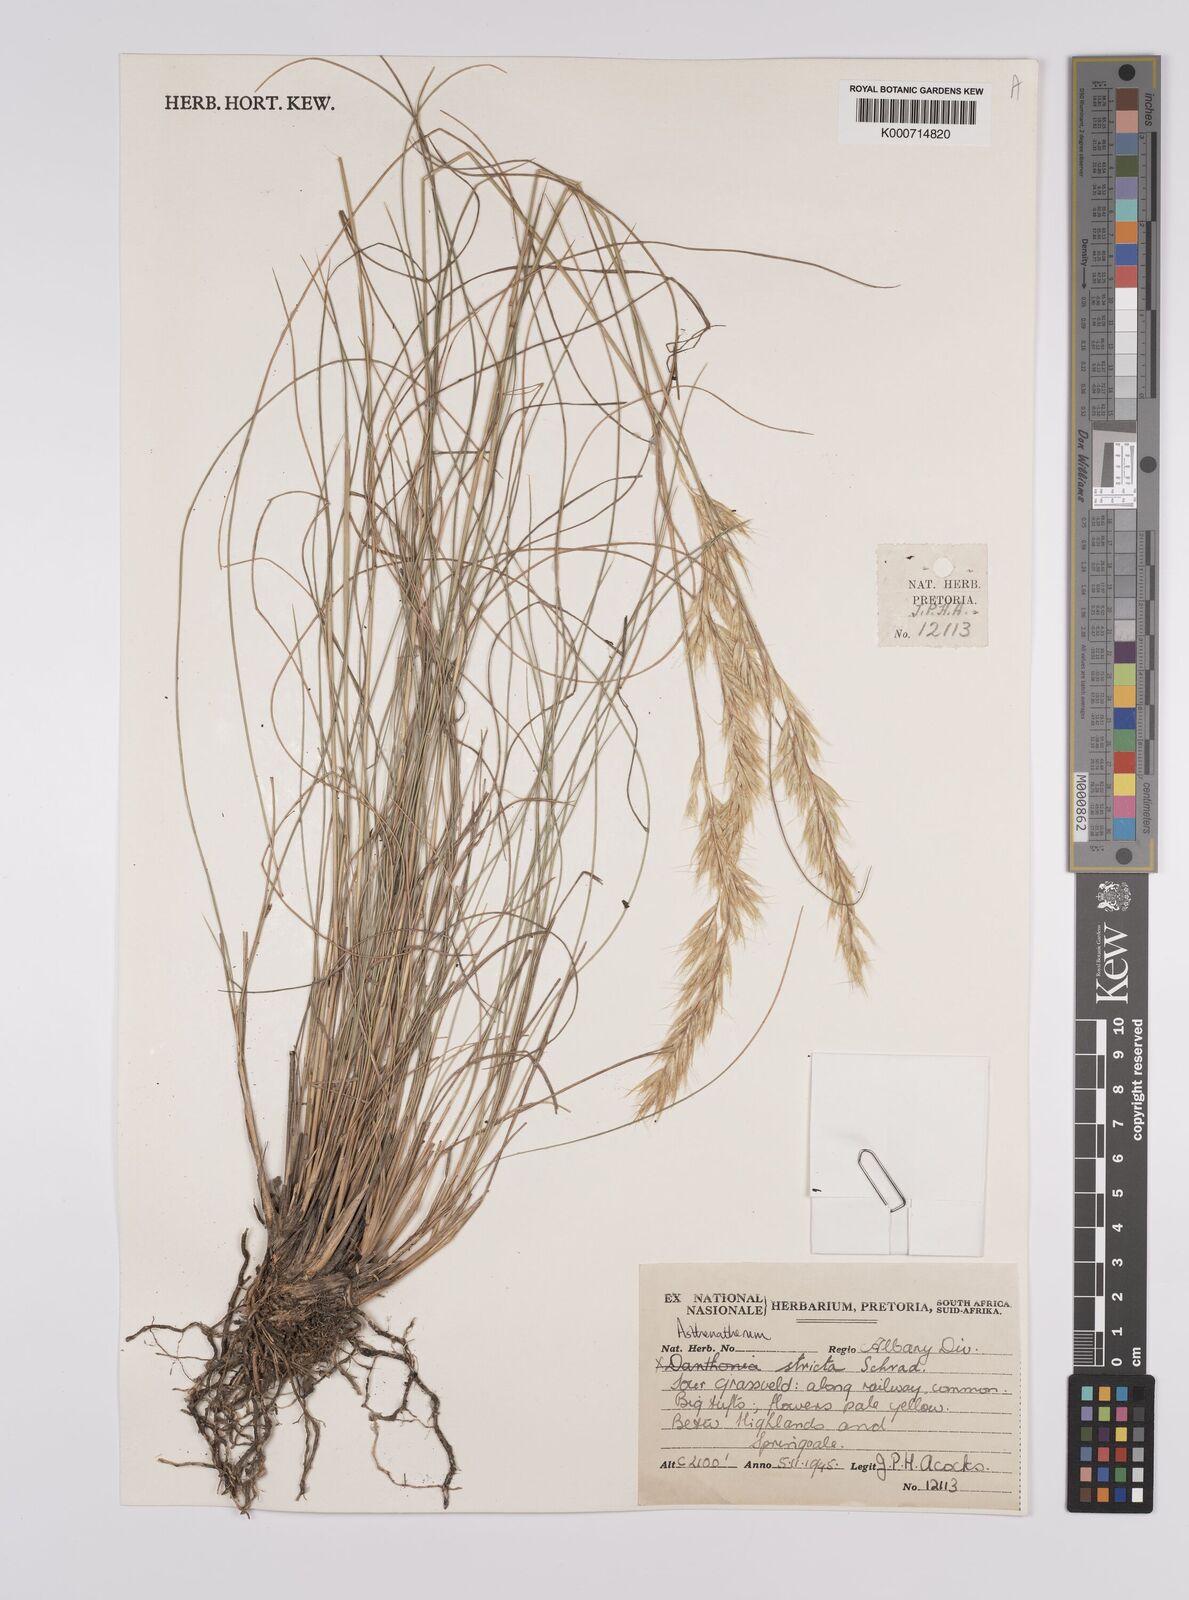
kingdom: Plantae
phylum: Tracheophyta
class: Liliopsida
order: Poales
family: Poaceae
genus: Rytidosperma
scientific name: Rytidosperma
